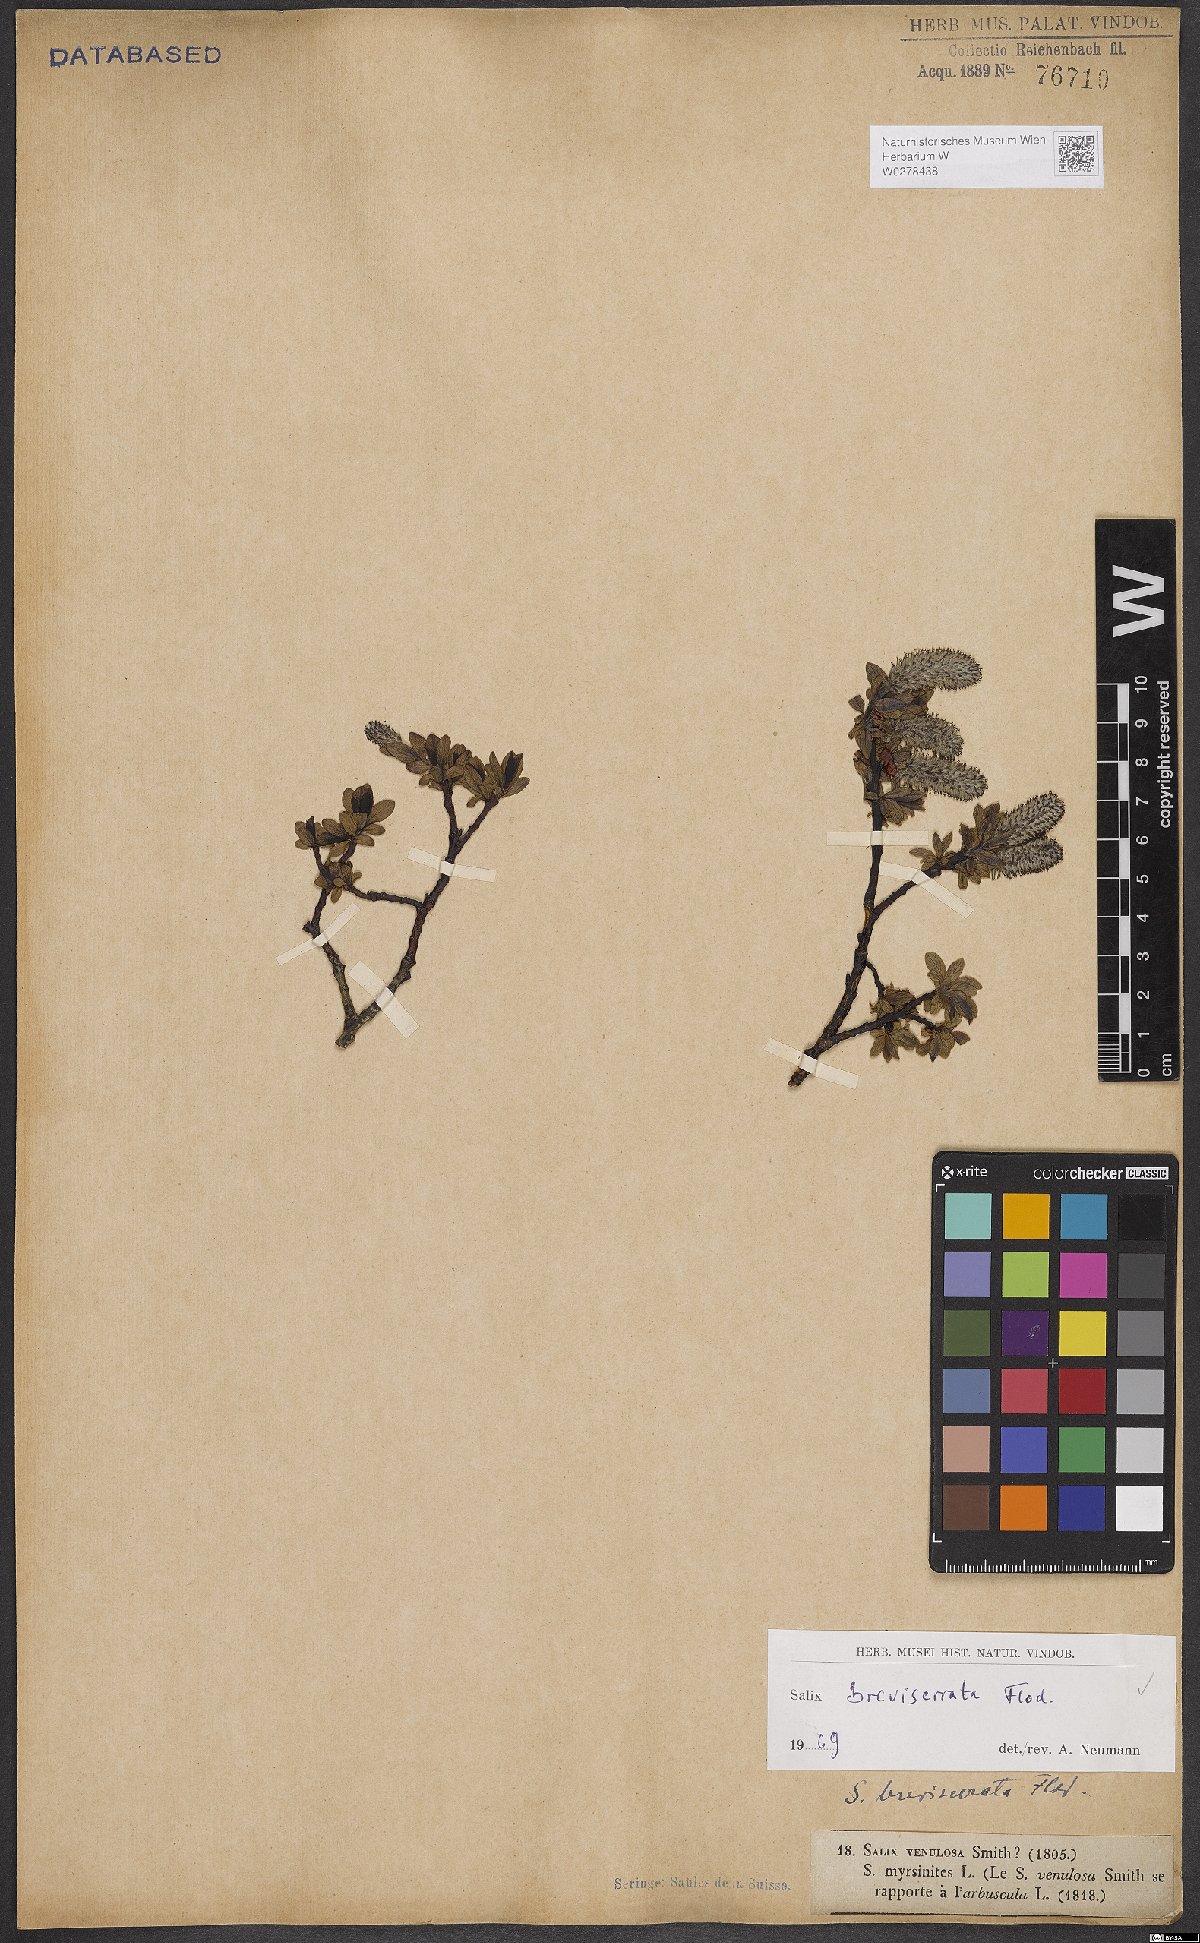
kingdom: Plantae
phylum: Tracheophyta
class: Magnoliopsida
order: Malpighiales
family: Salicaceae
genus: Salix
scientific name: Salix breviserrata
